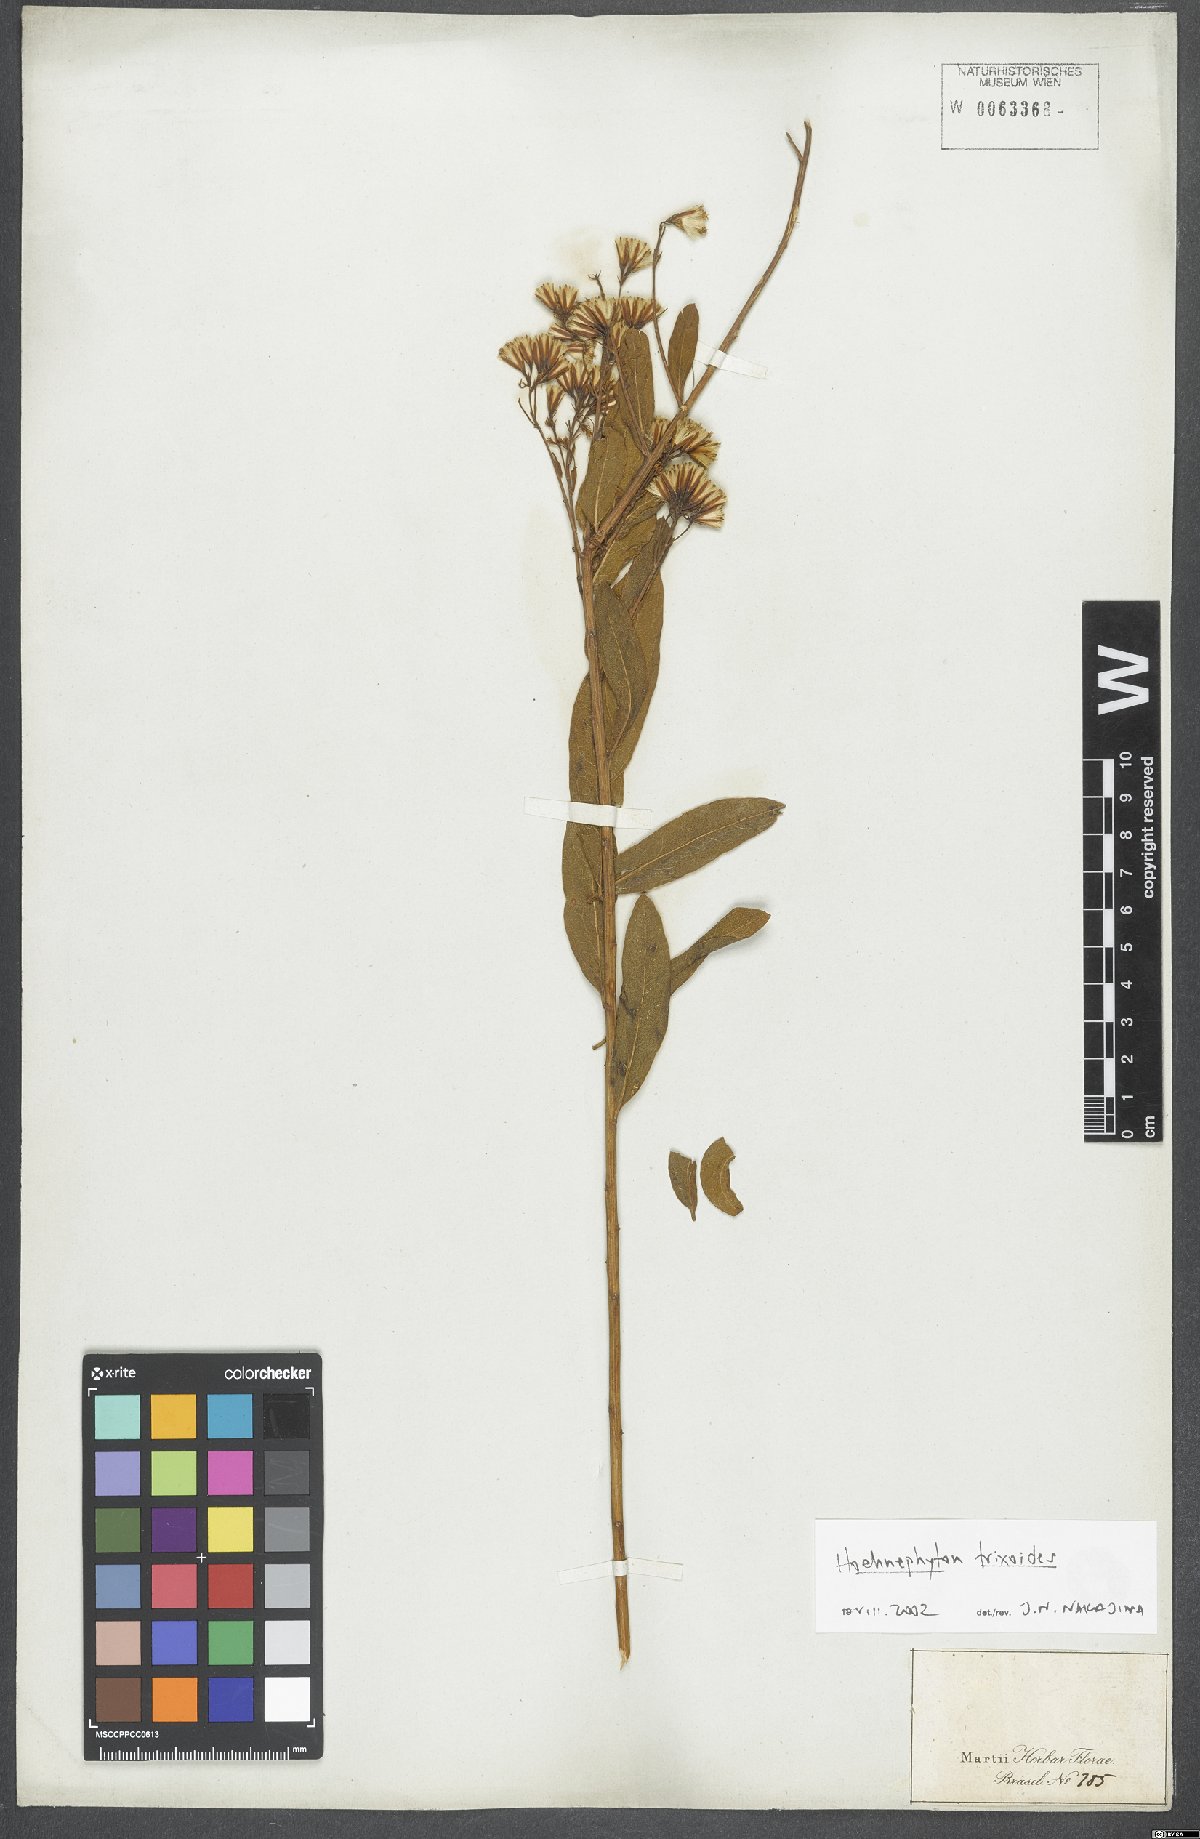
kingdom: Plantae
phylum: Tracheophyta
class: Magnoliopsida
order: Asterales
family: Asteraceae
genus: Hoehnephytum
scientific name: Hoehnephytum trixoides
